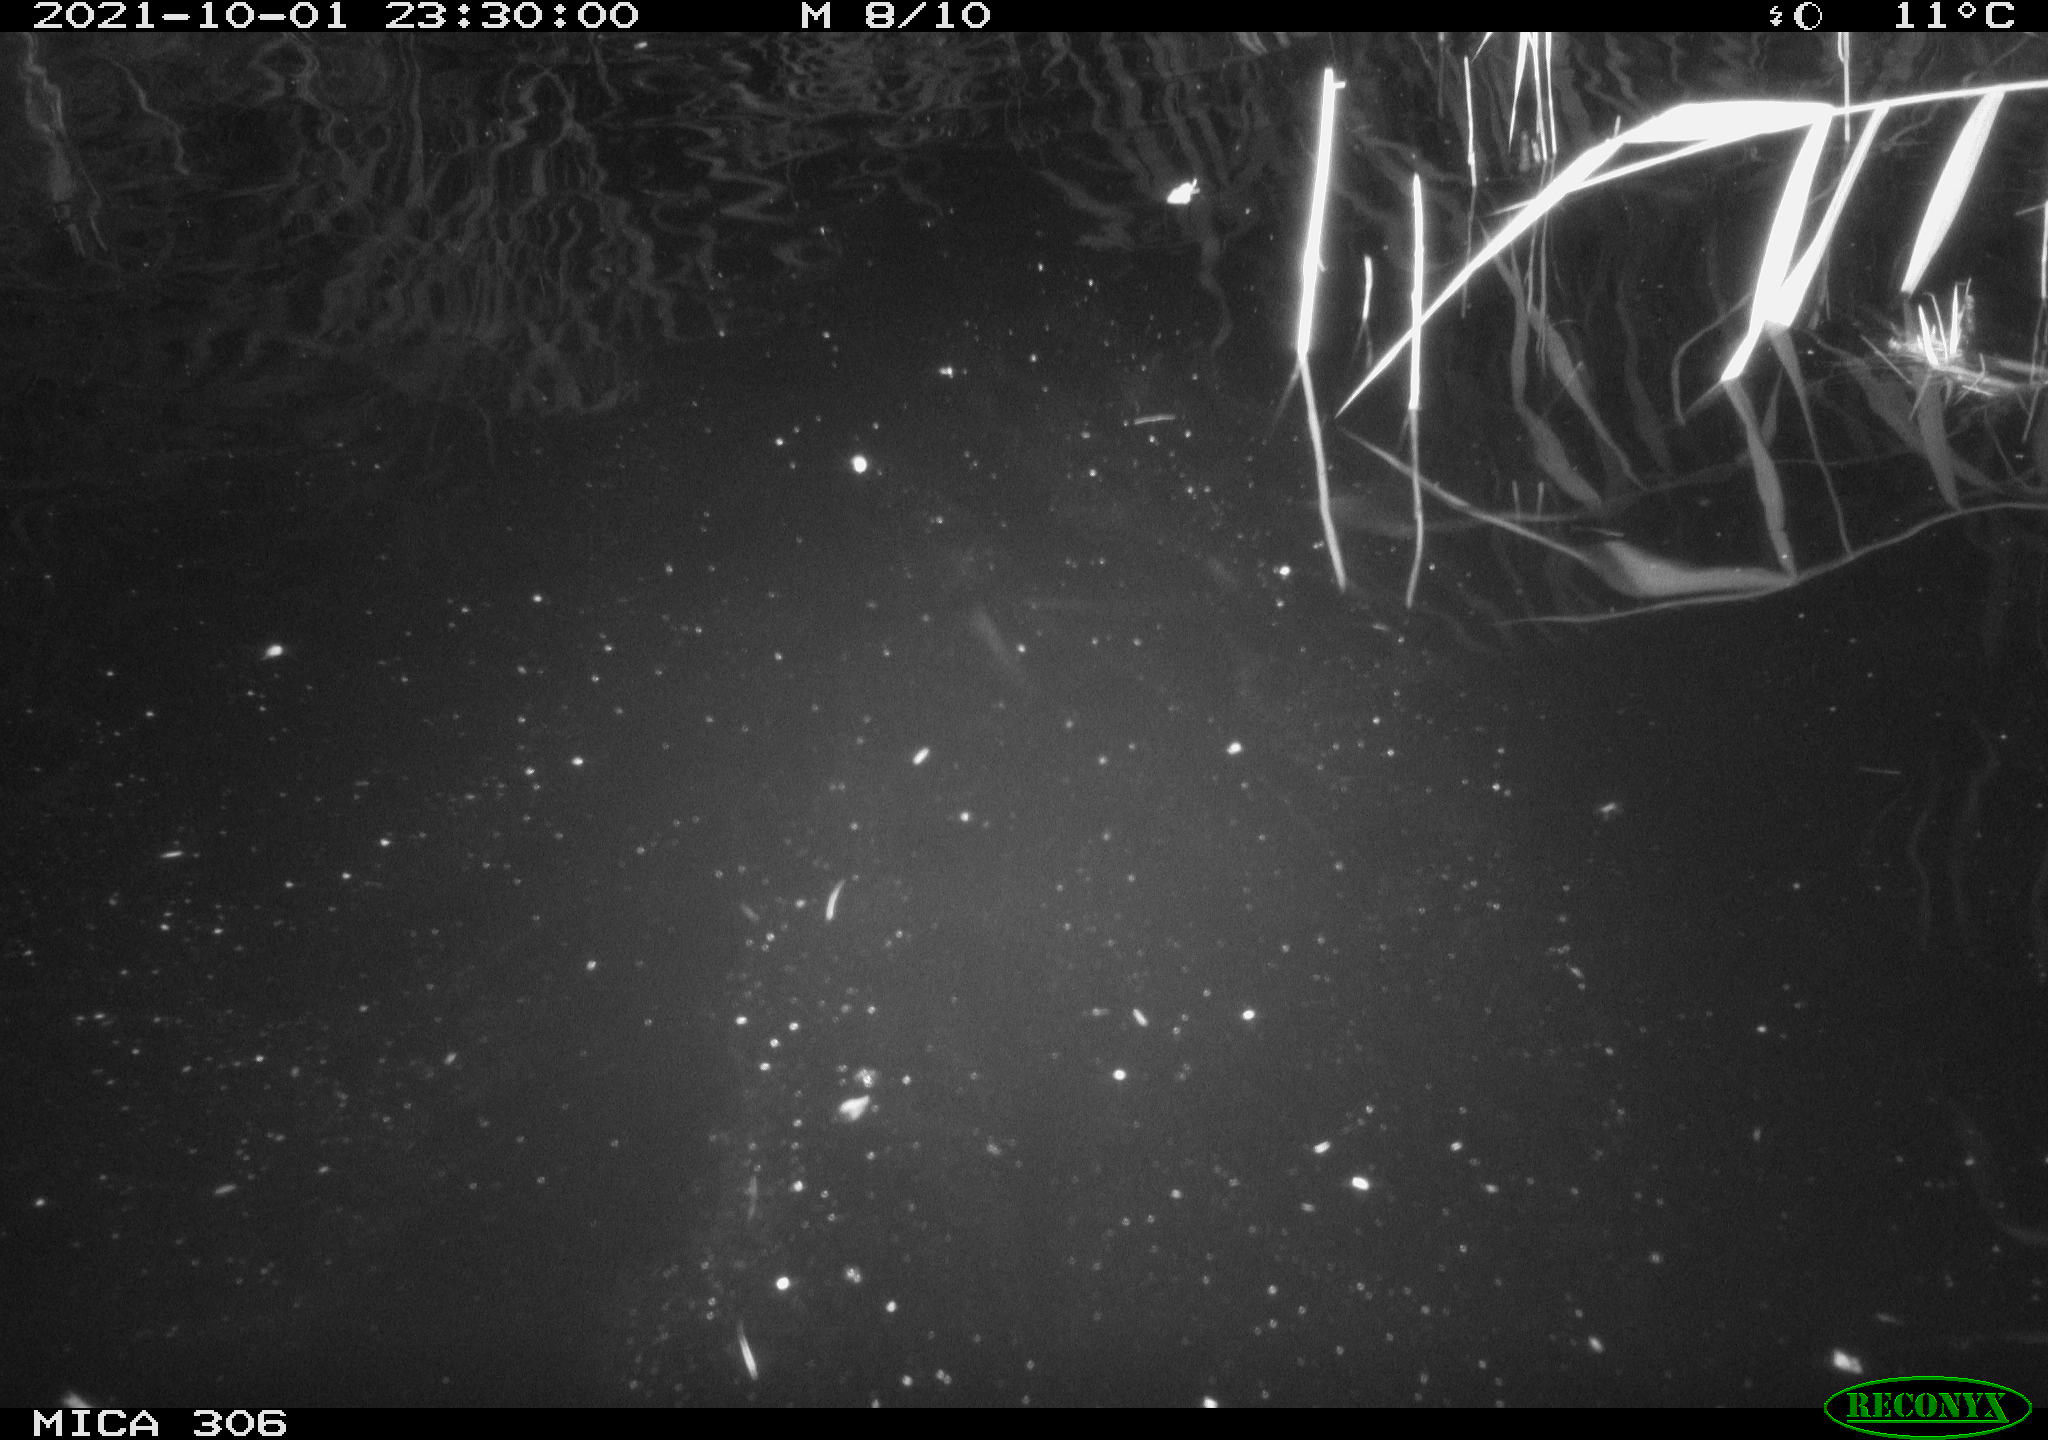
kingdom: Animalia
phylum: Chordata
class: Mammalia
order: Rodentia
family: Cricetidae
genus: Ondatra
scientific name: Ondatra zibethicus
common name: Muskrat
